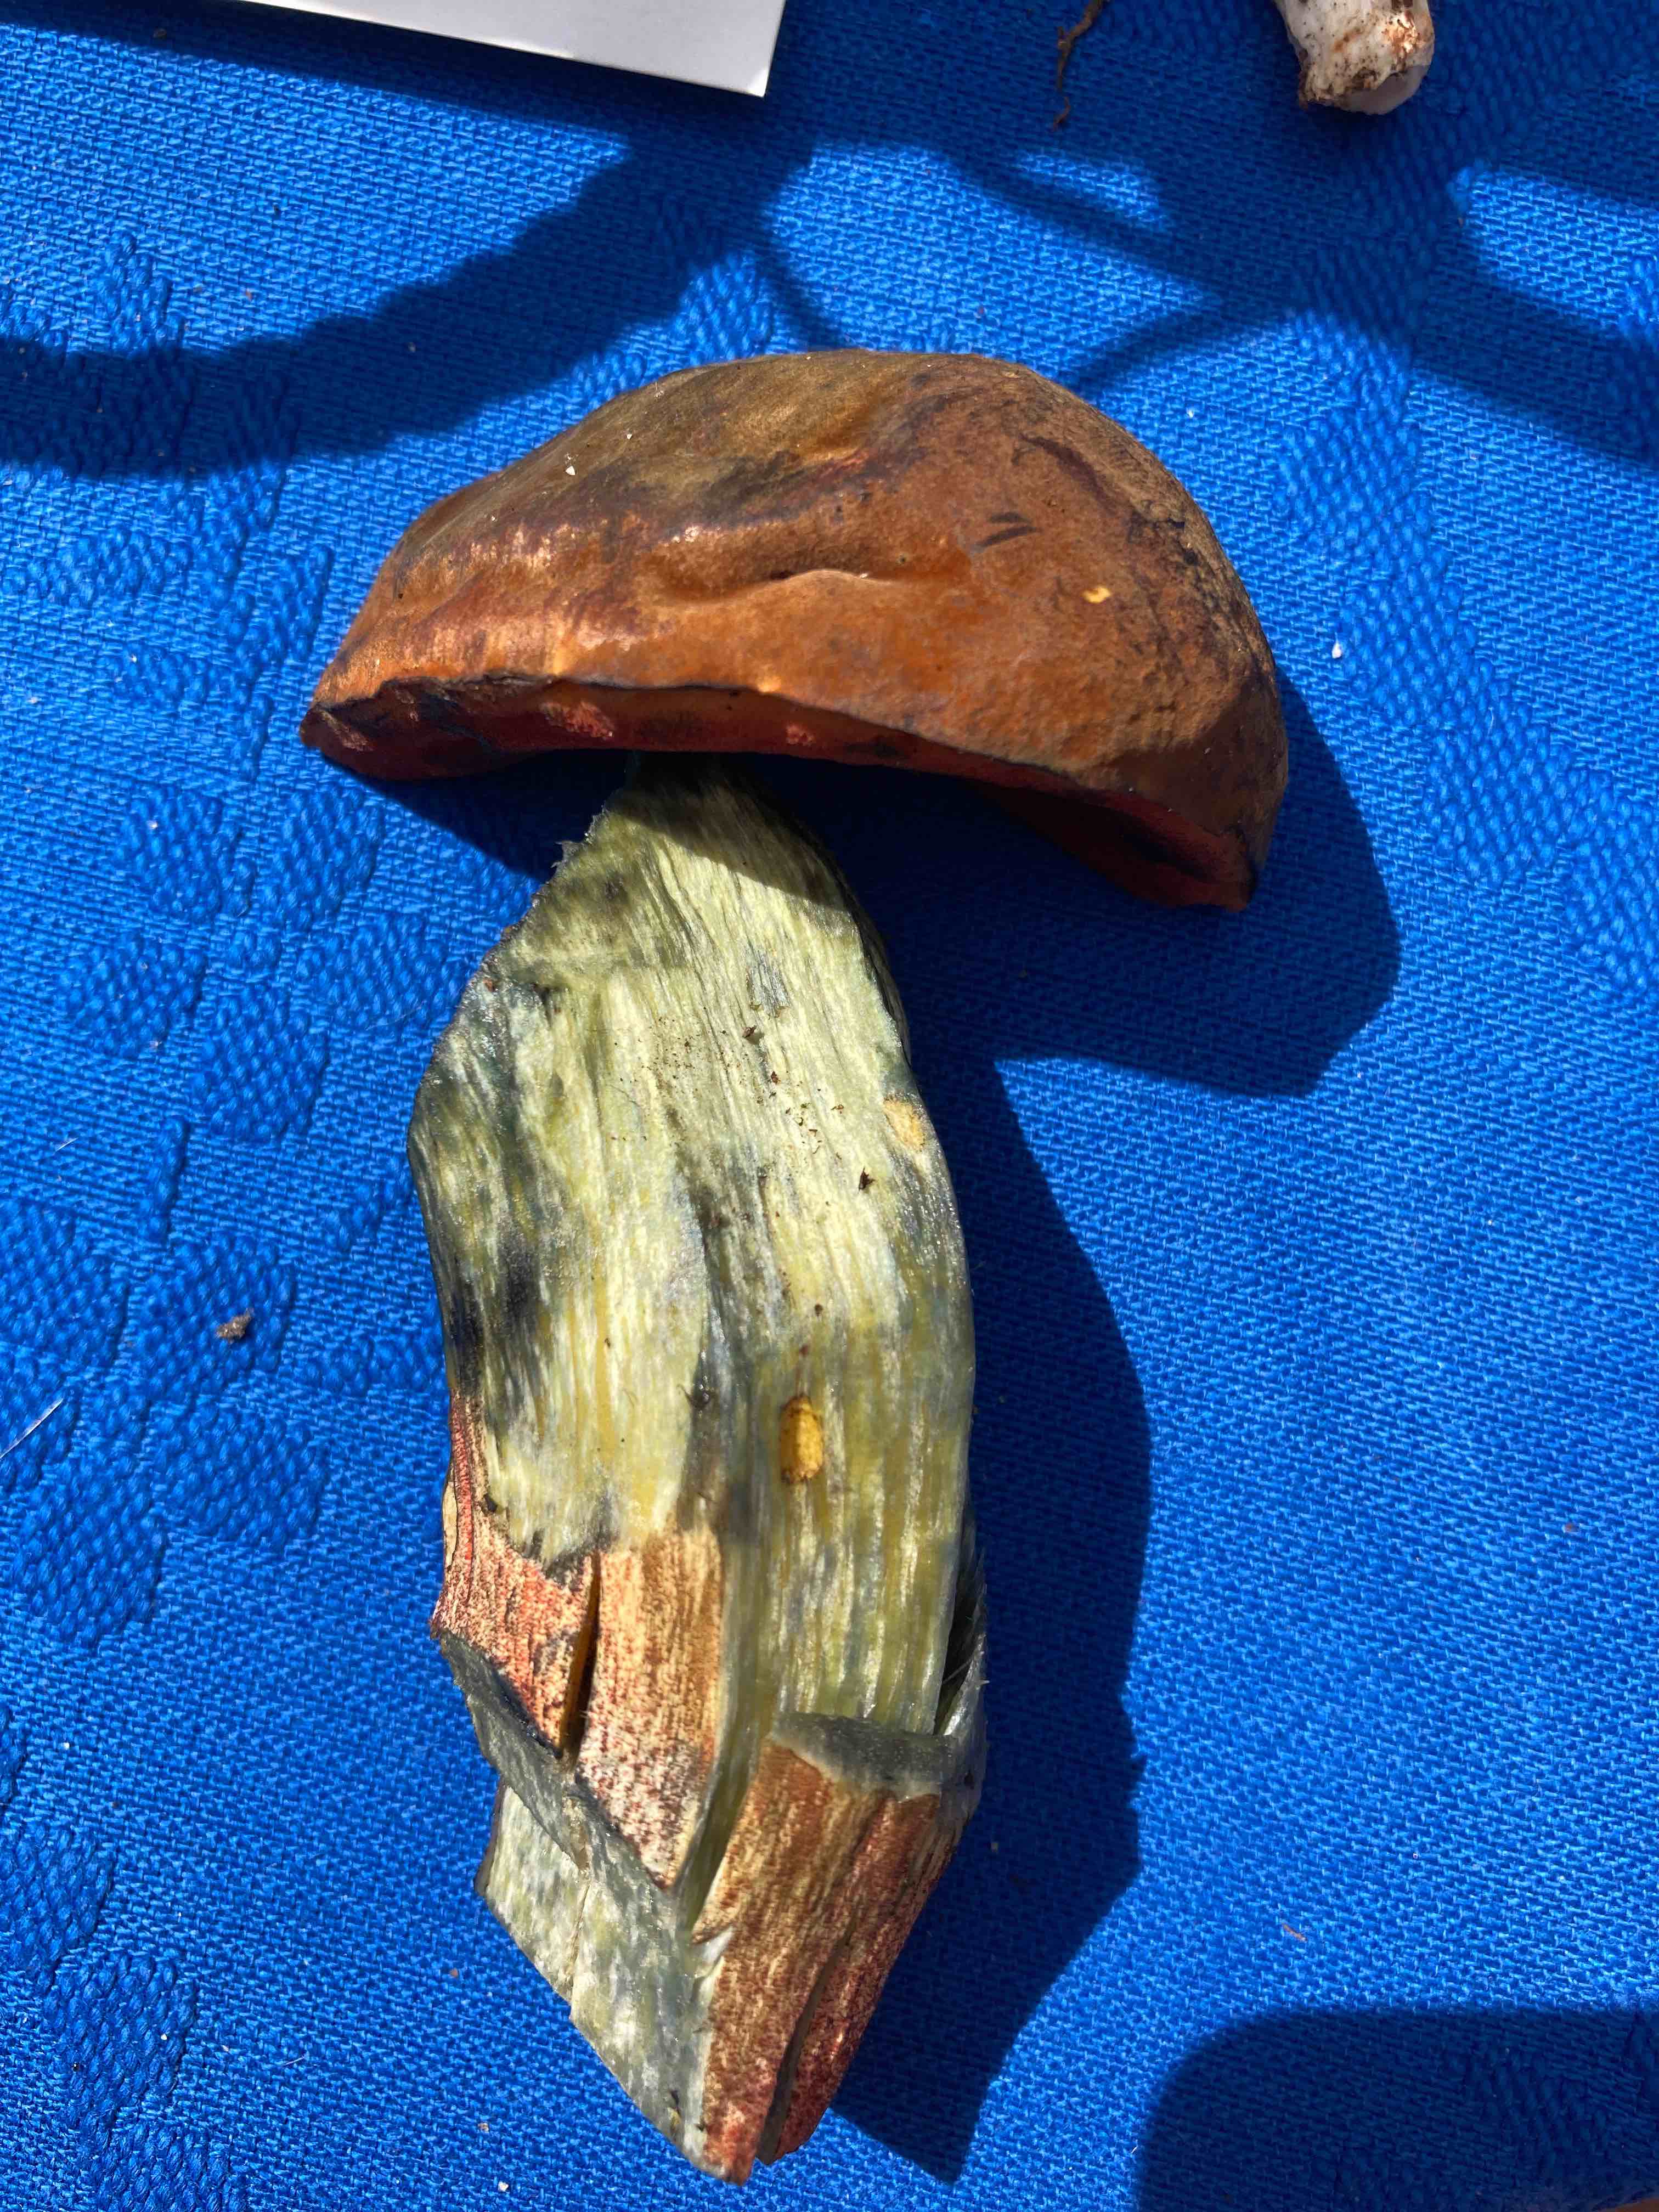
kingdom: Fungi
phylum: Basidiomycota
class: Agaricomycetes
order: Boletales
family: Boletaceae
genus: Neoboletus
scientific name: Neoboletus erythropus
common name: punktstokket indigorørhat
